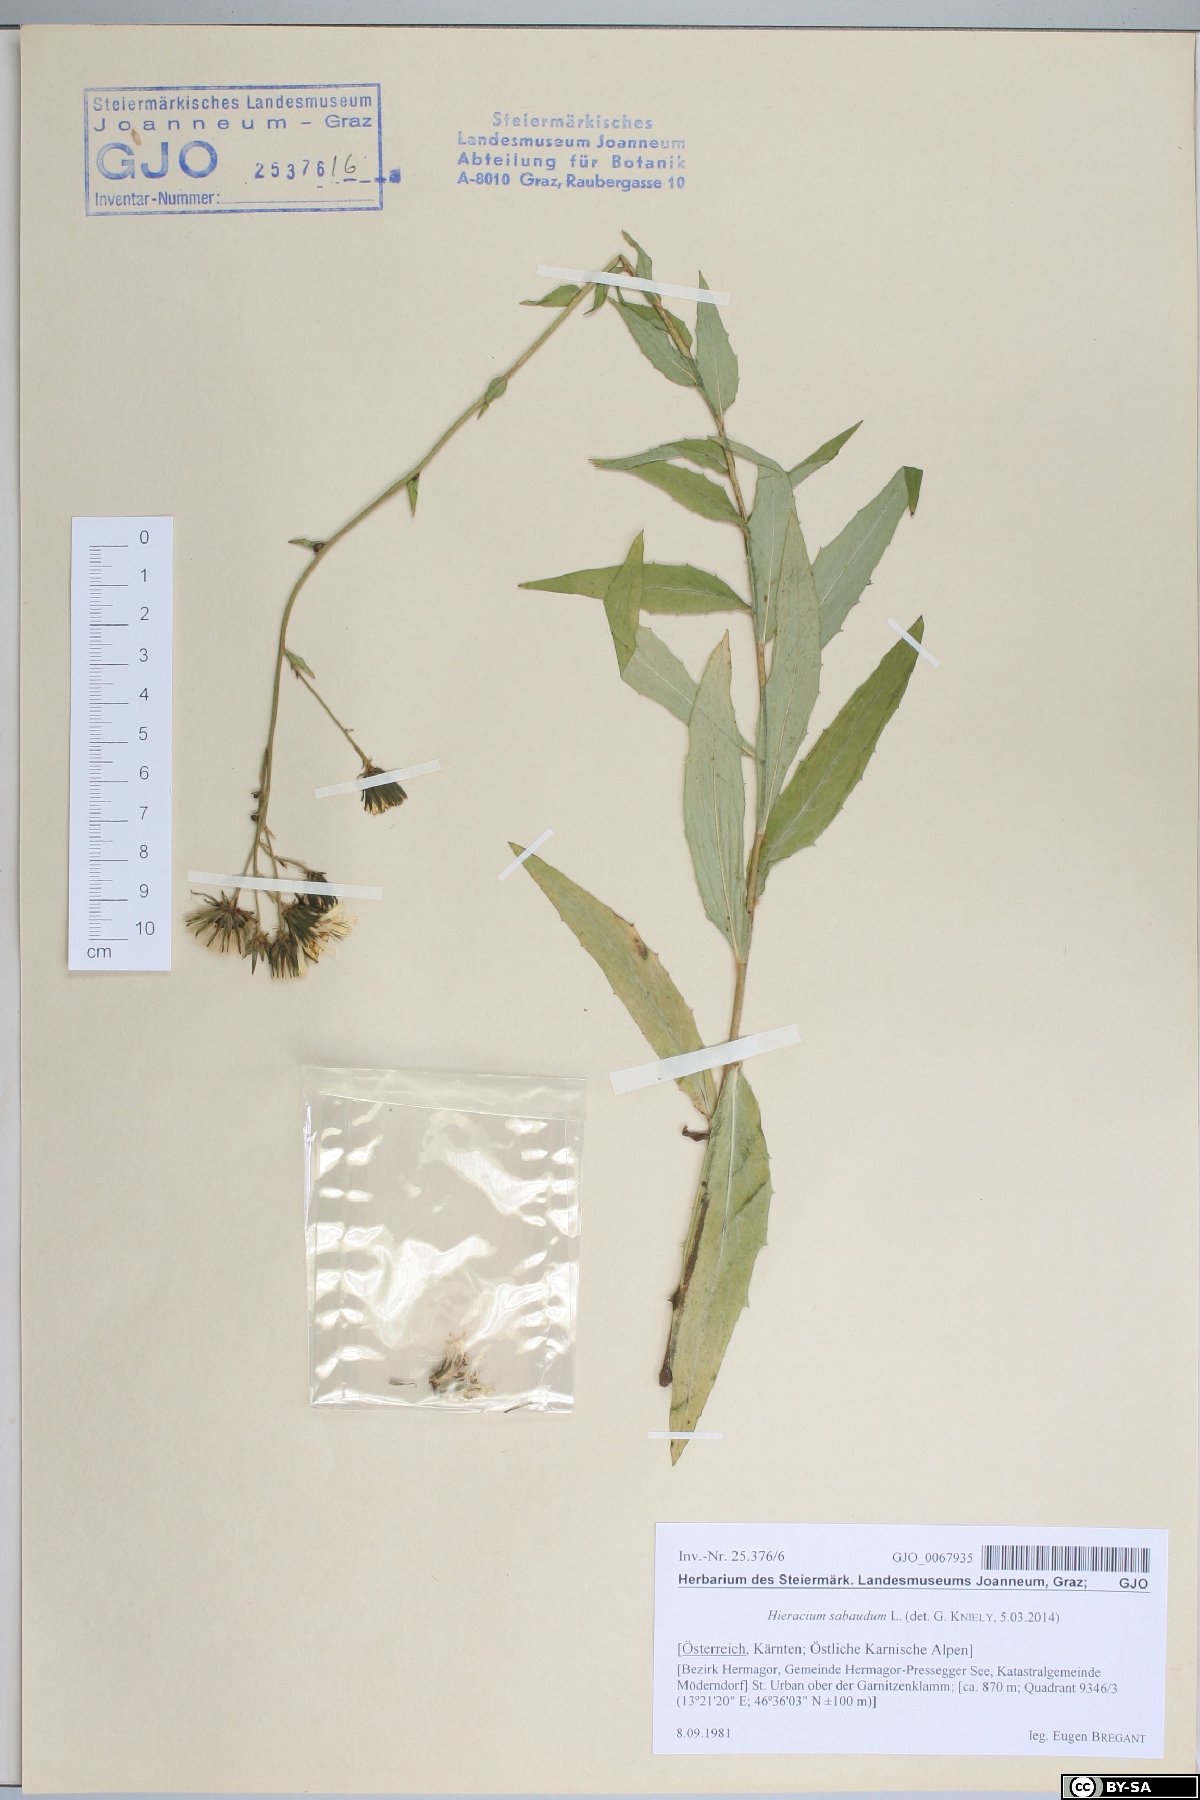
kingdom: Plantae
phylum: Tracheophyta
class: Magnoliopsida
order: Asterales
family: Asteraceae
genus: Hieracium
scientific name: Hieracium sabaudum
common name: New england hawkweed
